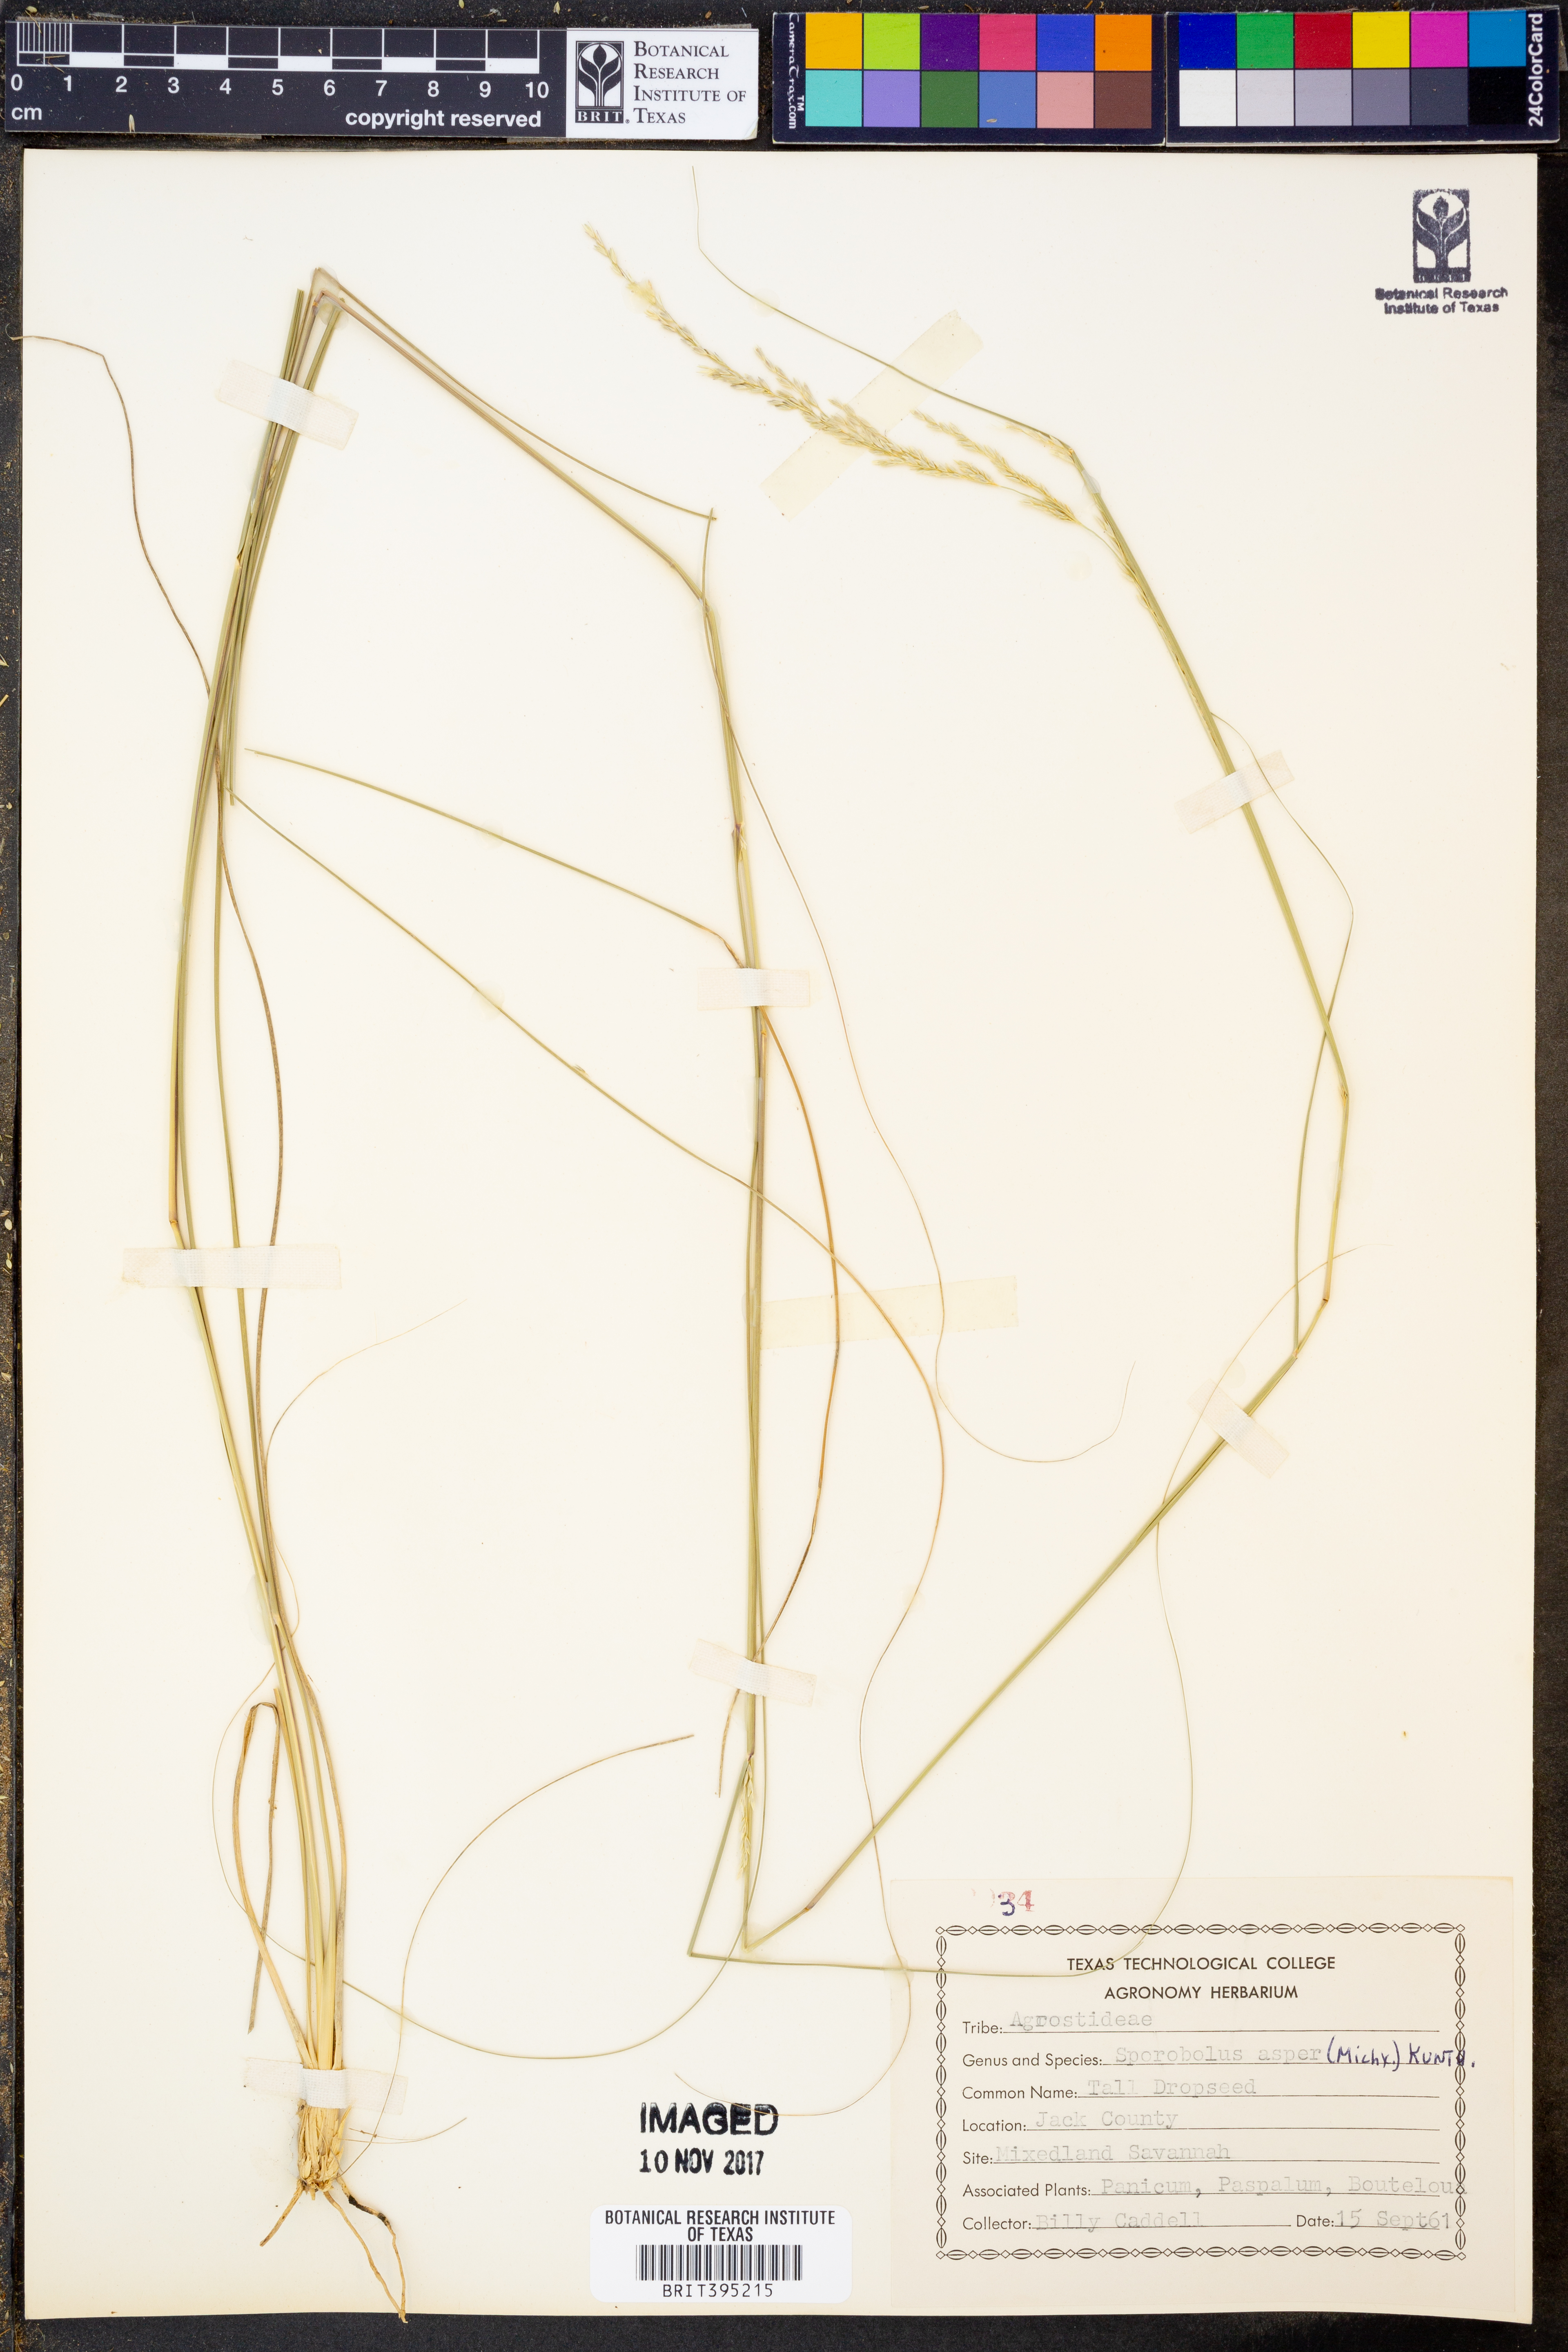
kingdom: Plantae
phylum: Tracheophyta
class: Liliopsida
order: Poales
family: Poaceae
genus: Sporobolus
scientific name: Sporobolus compositus
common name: Rough dropseed
